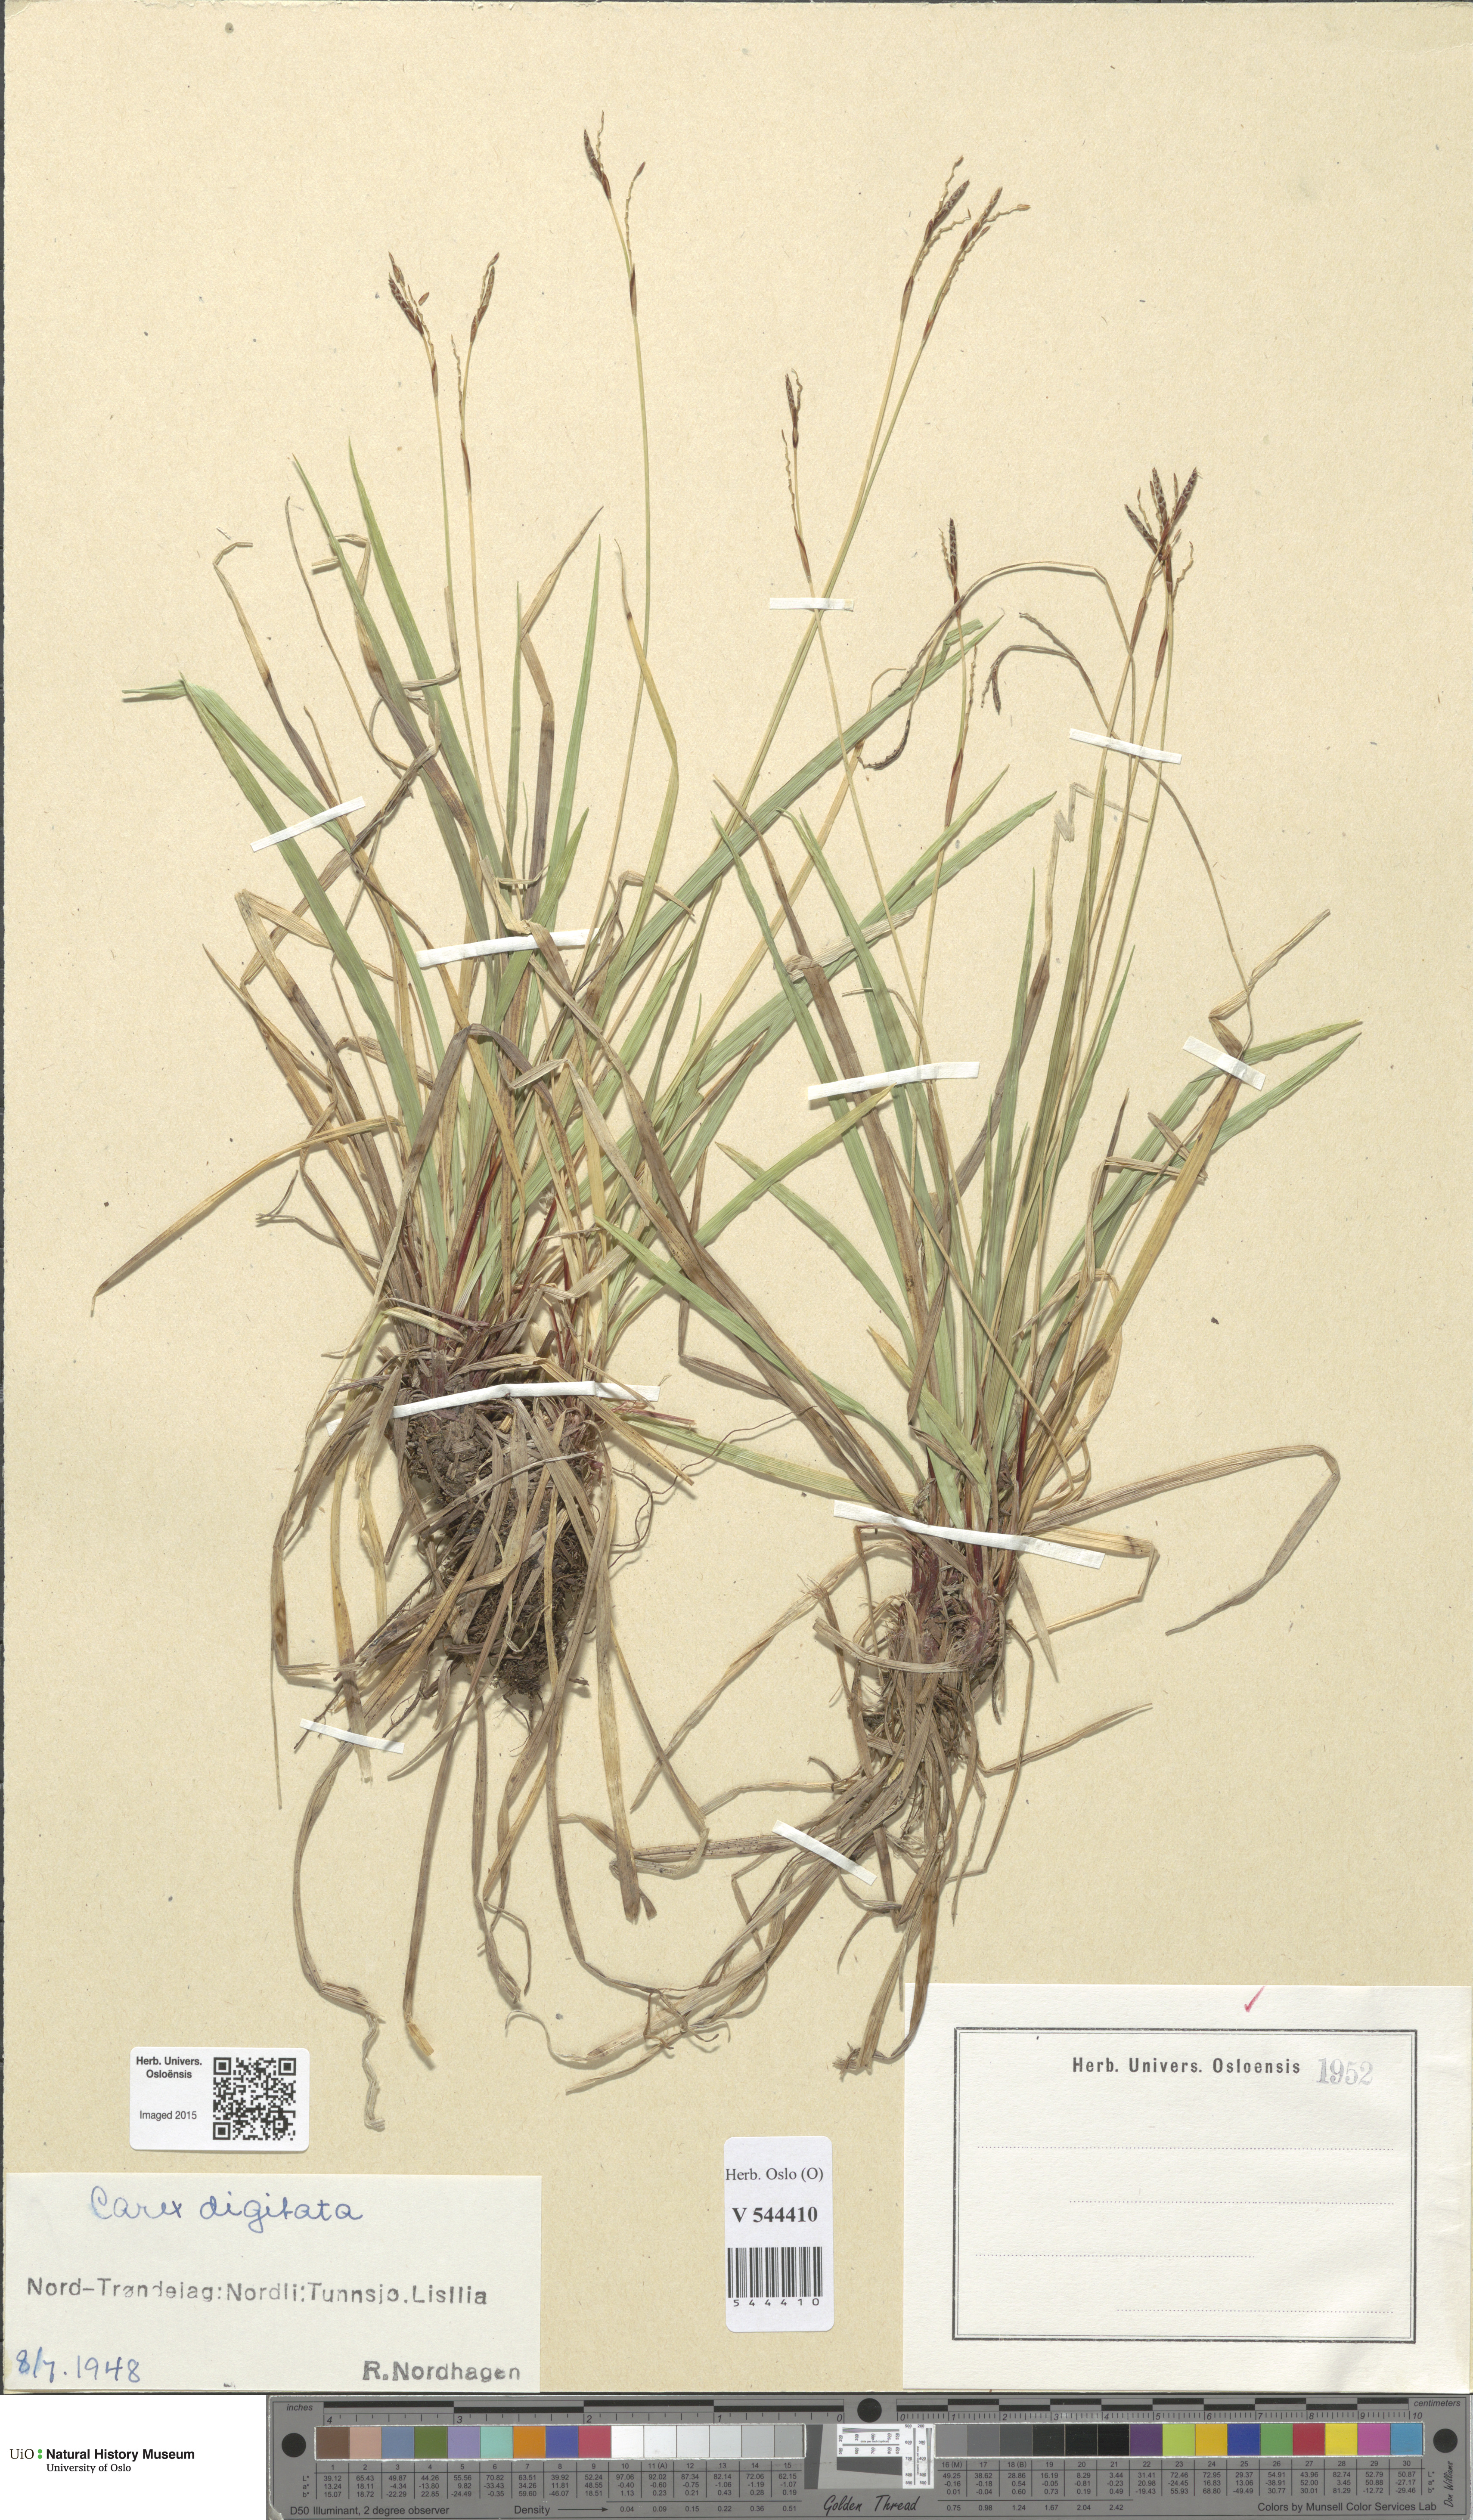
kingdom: Plantae
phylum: Tracheophyta
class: Liliopsida
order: Poales
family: Cyperaceae
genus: Carex
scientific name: Carex digitata
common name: Fingered sedge
